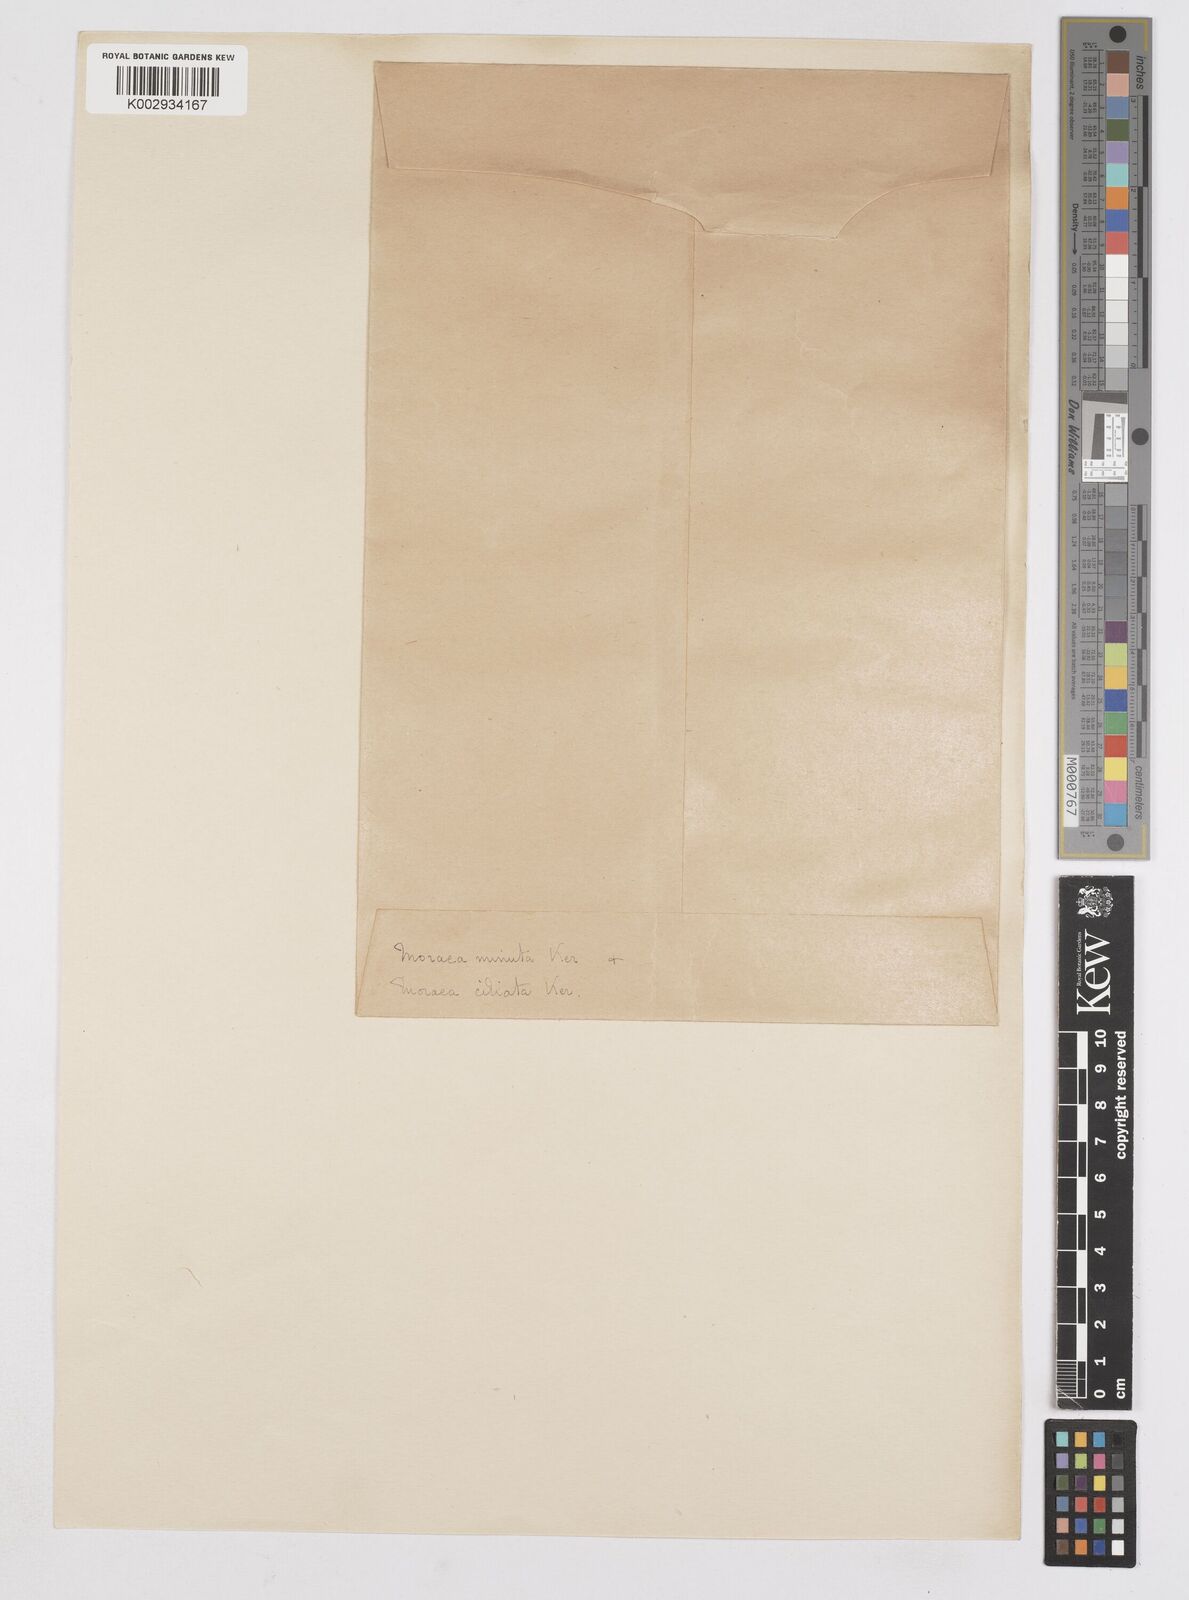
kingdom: Plantae
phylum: Tracheophyta
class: Liliopsida
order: Asparagales
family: Iridaceae
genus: Moraea
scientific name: Moraea ciliata
